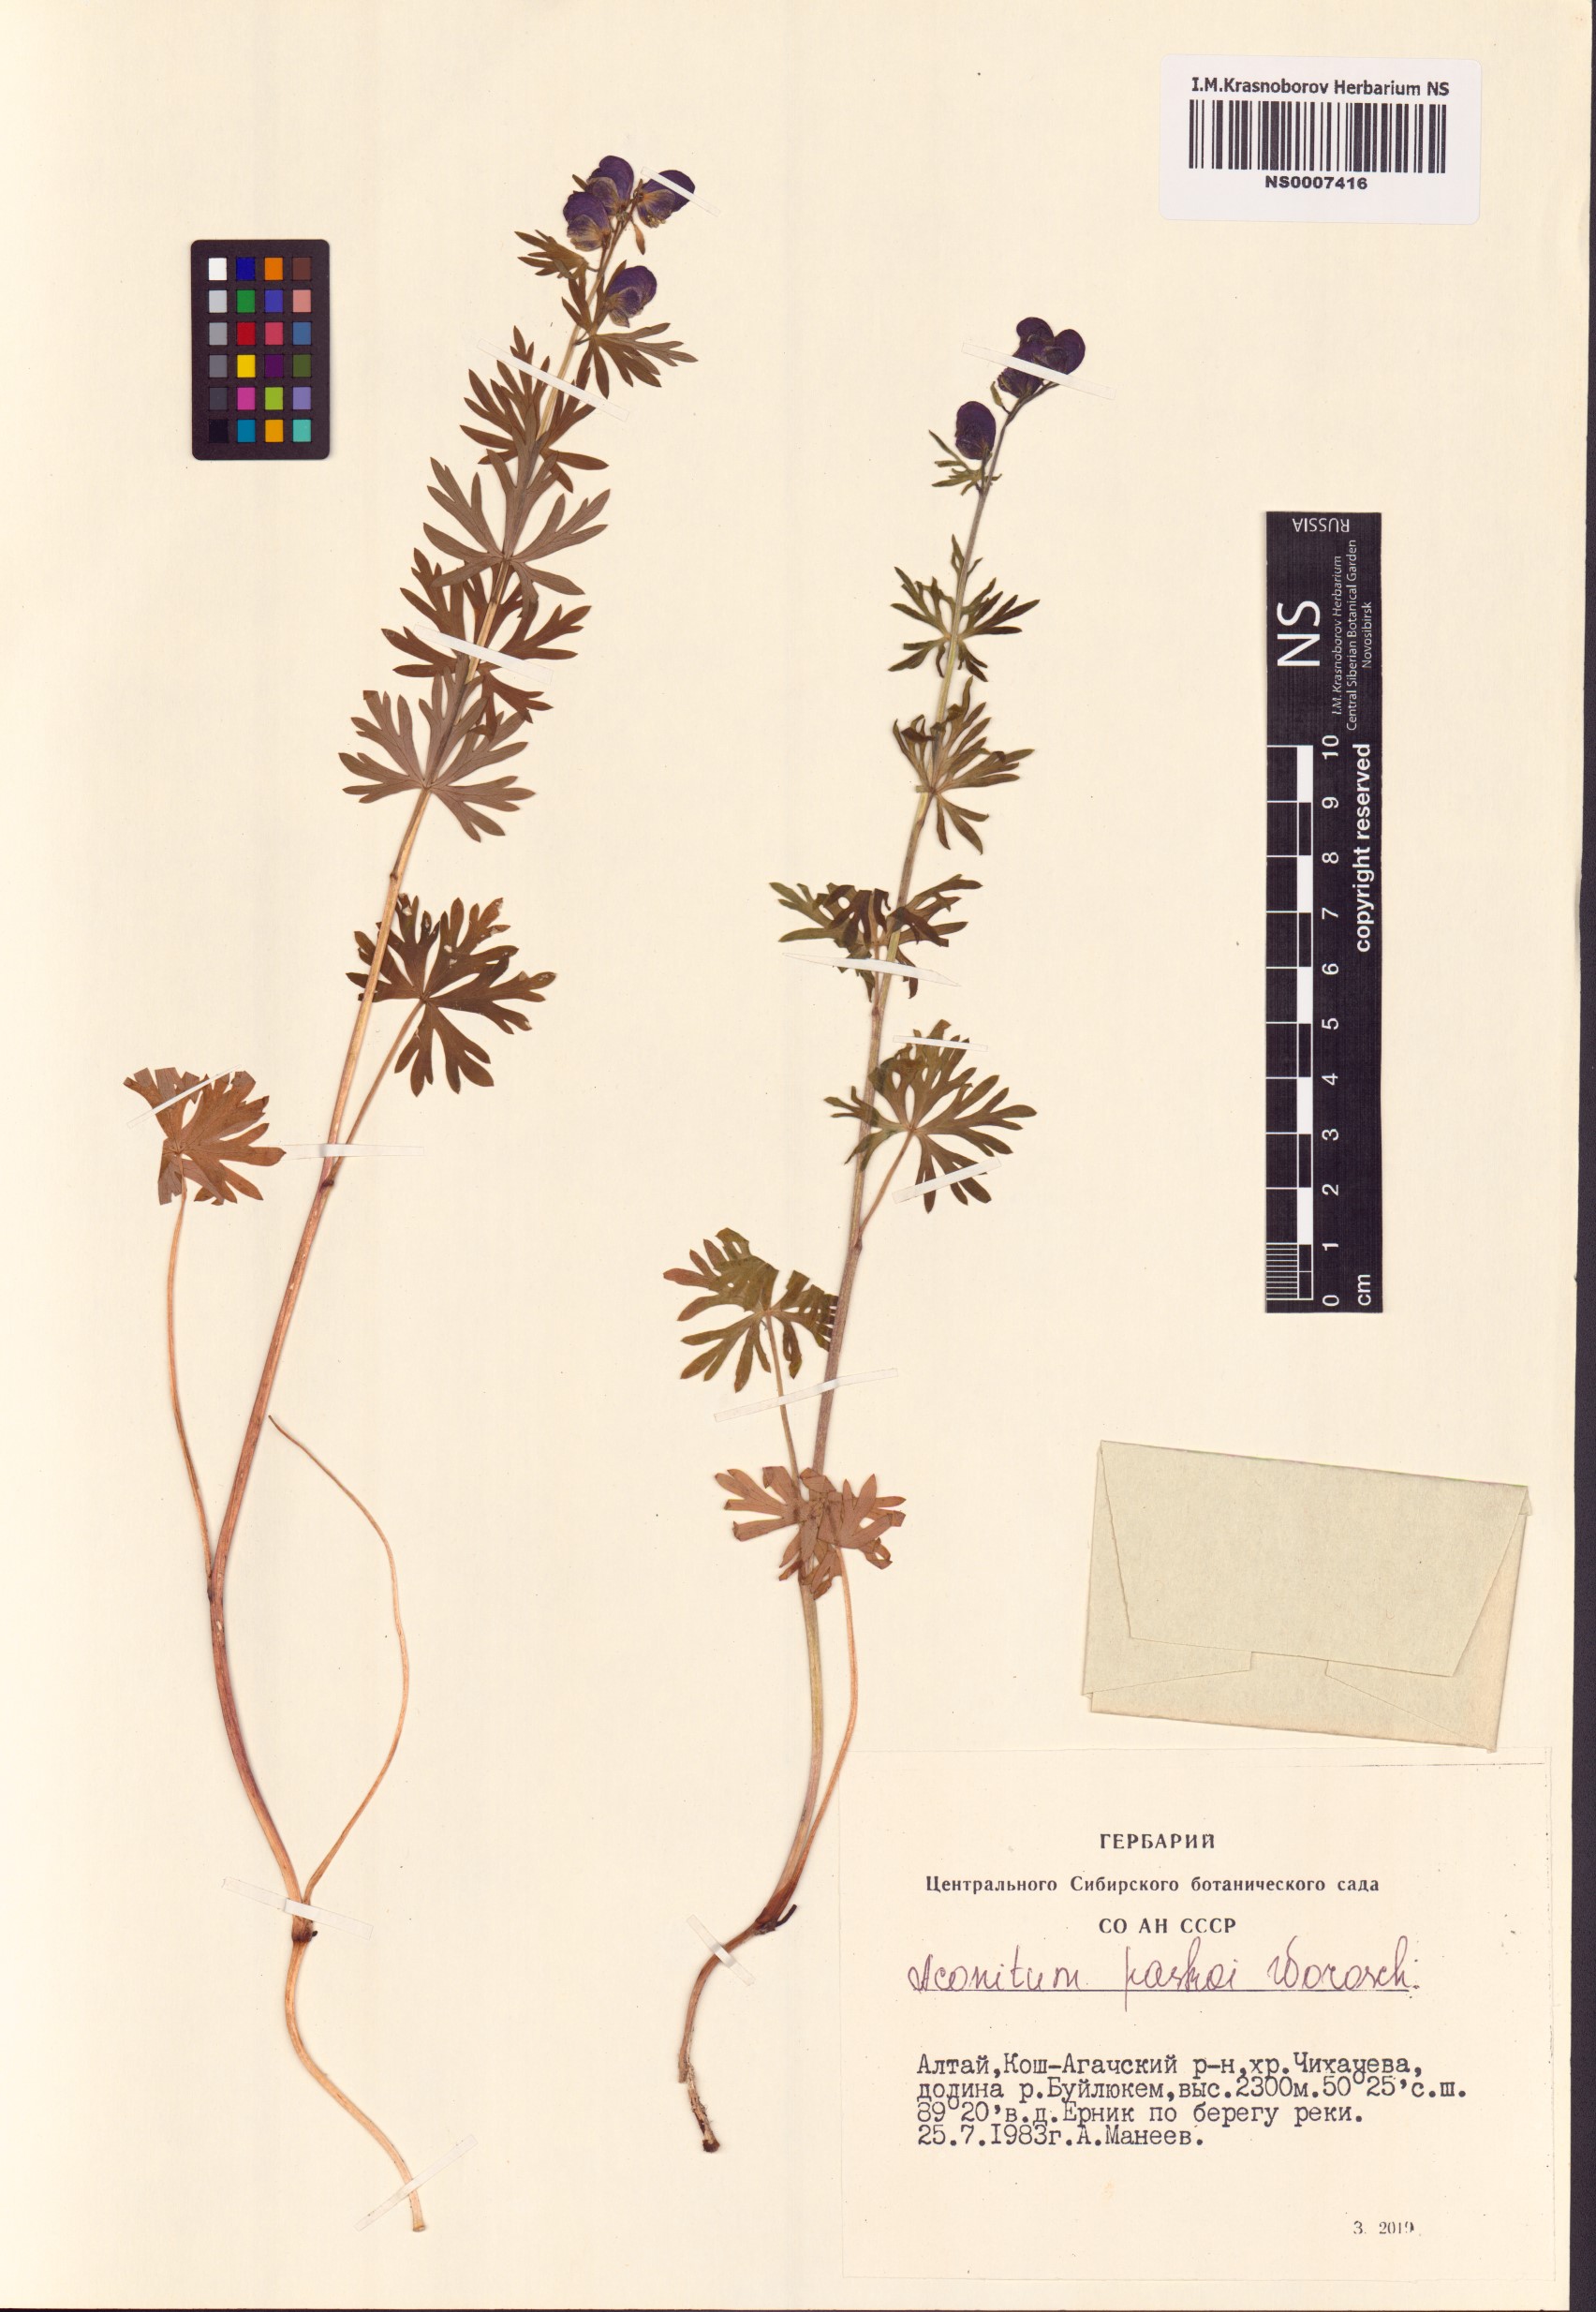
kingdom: Plantae
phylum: Tracheophyta
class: Magnoliopsida
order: Ranunculales
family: Ranunculaceae
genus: Aconitum
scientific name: Aconitum pascoi
